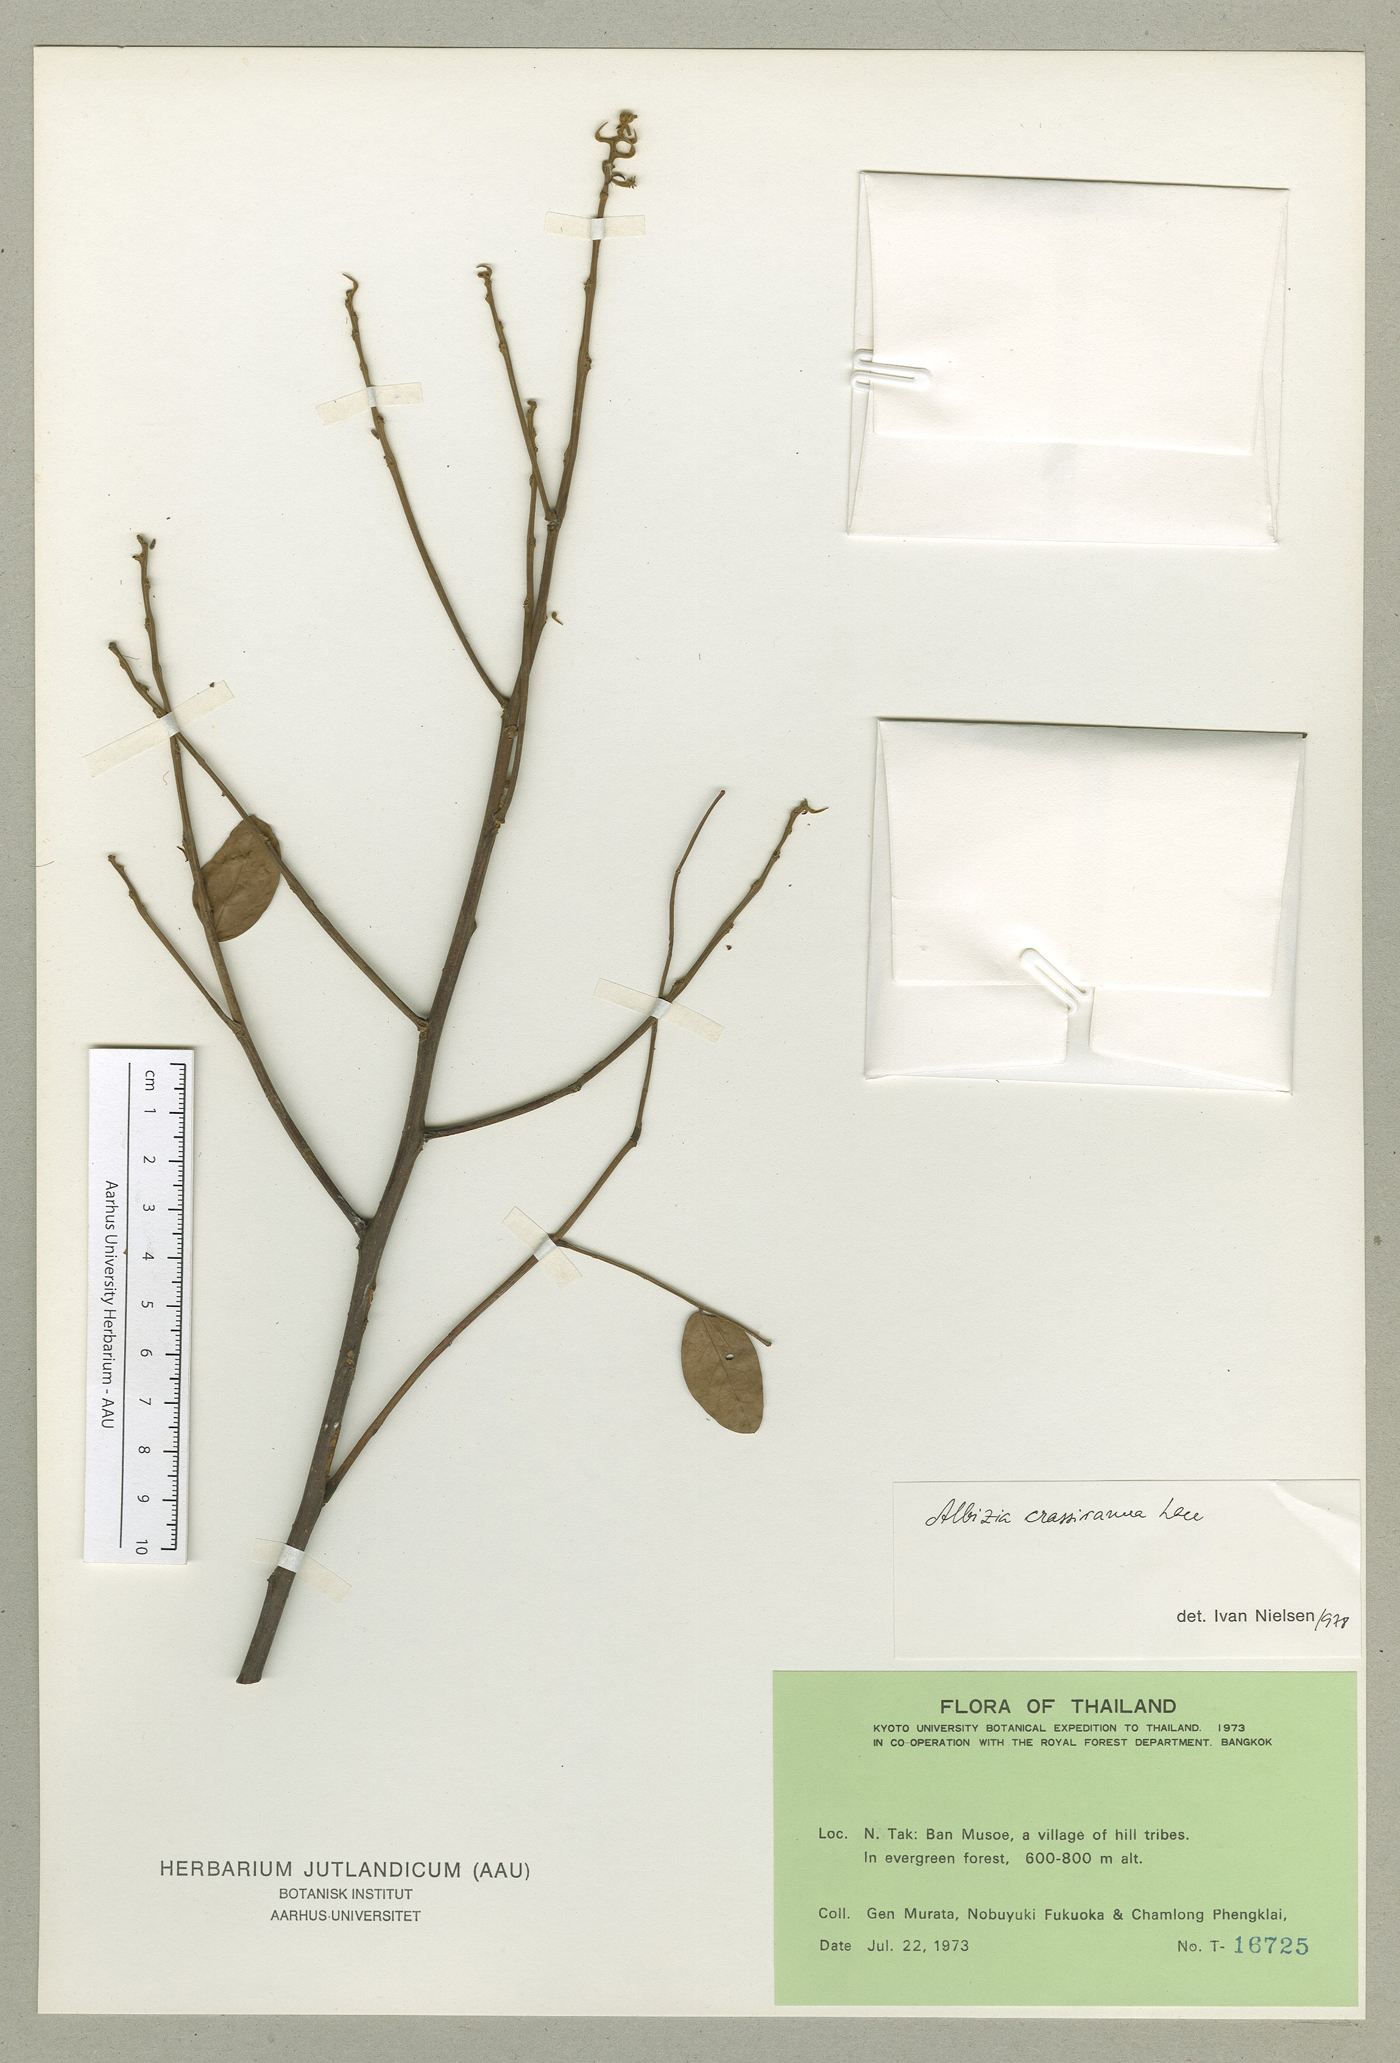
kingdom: Plantae
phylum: Tracheophyta
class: Magnoliopsida
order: Fabales
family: Fabaceae
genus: Albizia
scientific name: Albizia crassiramea
